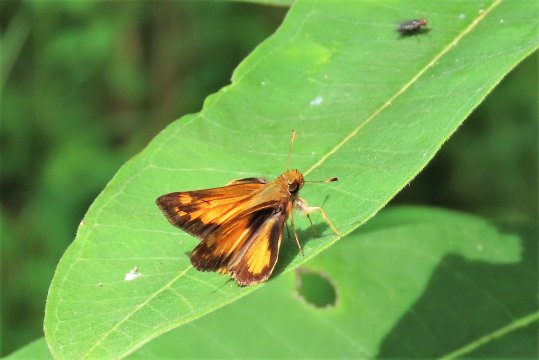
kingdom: Animalia
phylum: Arthropoda
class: Insecta
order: Lepidoptera
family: Hesperiidae
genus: Lon
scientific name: Lon zabulon
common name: Zabulon Skipper
